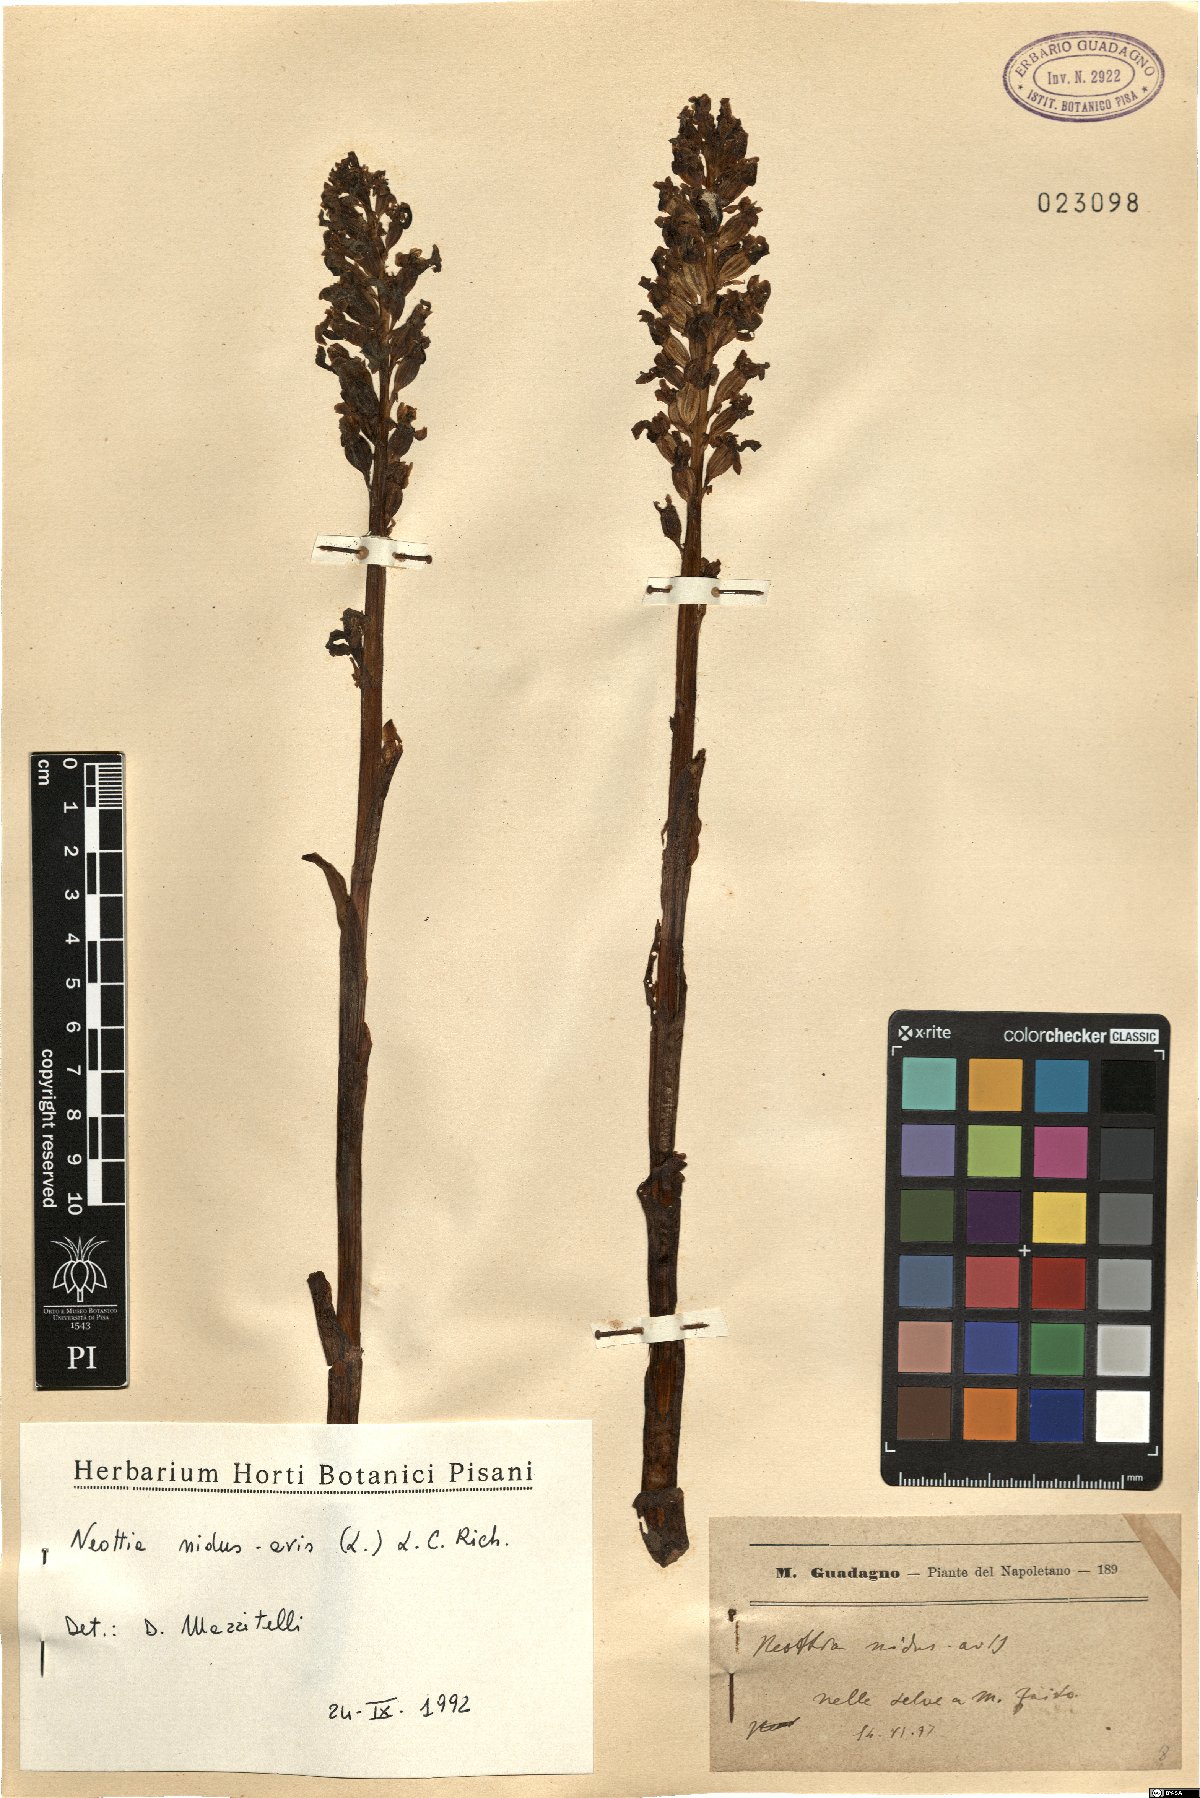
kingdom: Plantae
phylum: Tracheophyta
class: Liliopsida
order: Asparagales
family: Orchidaceae
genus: Neottia
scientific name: Neottia nidus-avis
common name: Bird's-nest orchid
